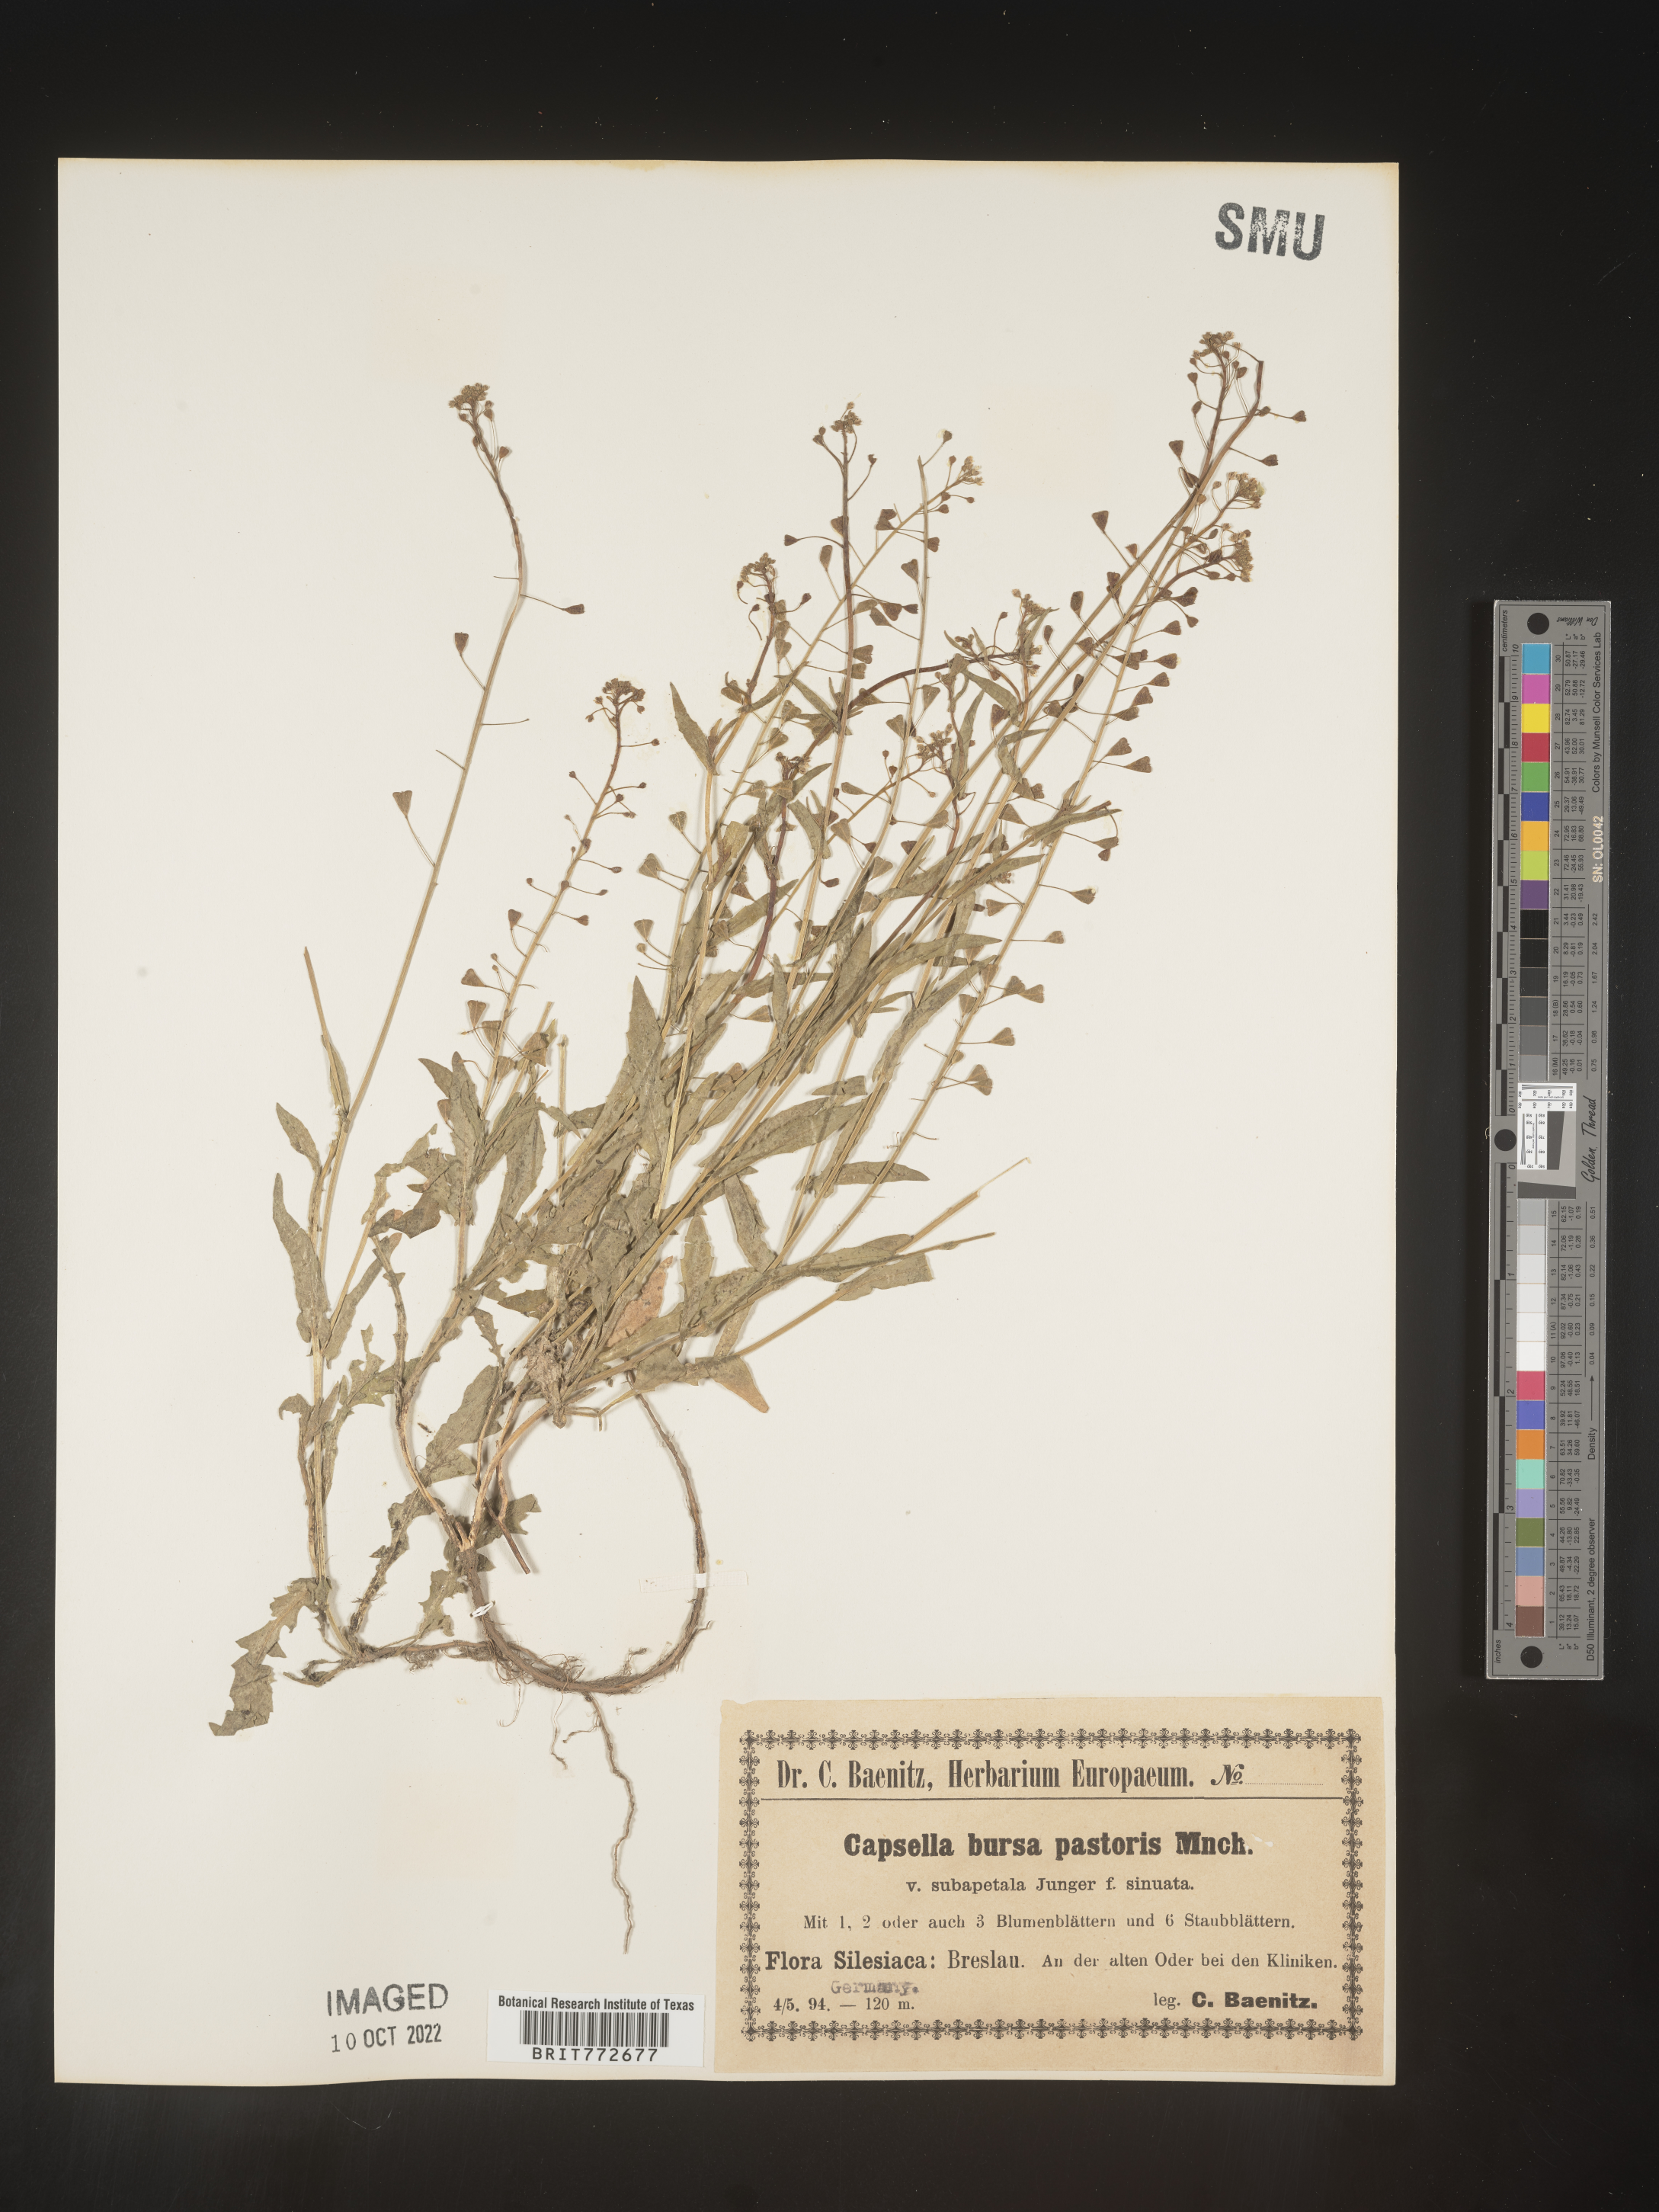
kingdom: Plantae
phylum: Tracheophyta
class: Magnoliopsida
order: Brassicales
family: Brassicaceae
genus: Capsella
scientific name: Capsella
